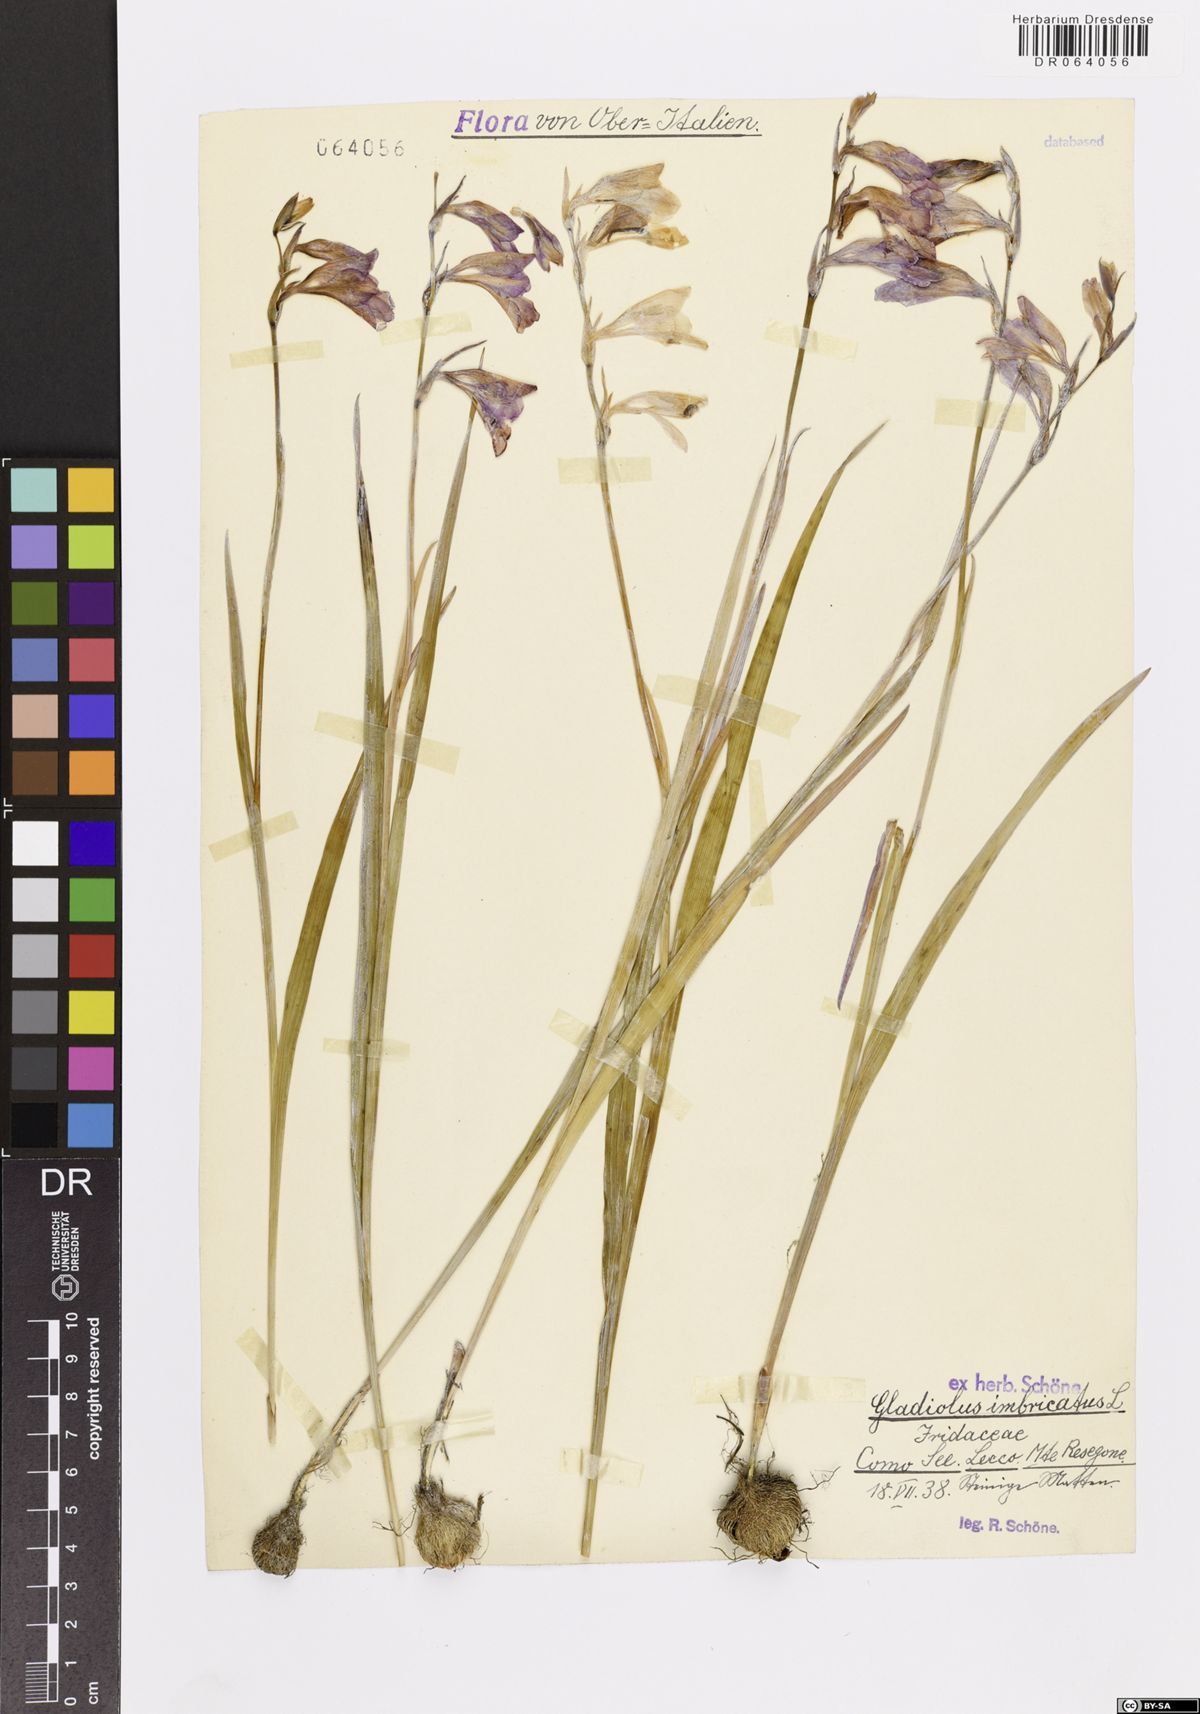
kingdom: Plantae
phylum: Tracheophyta
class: Liliopsida
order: Asparagales
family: Iridaceae
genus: Gladiolus
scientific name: Gladiolus imbricatus
